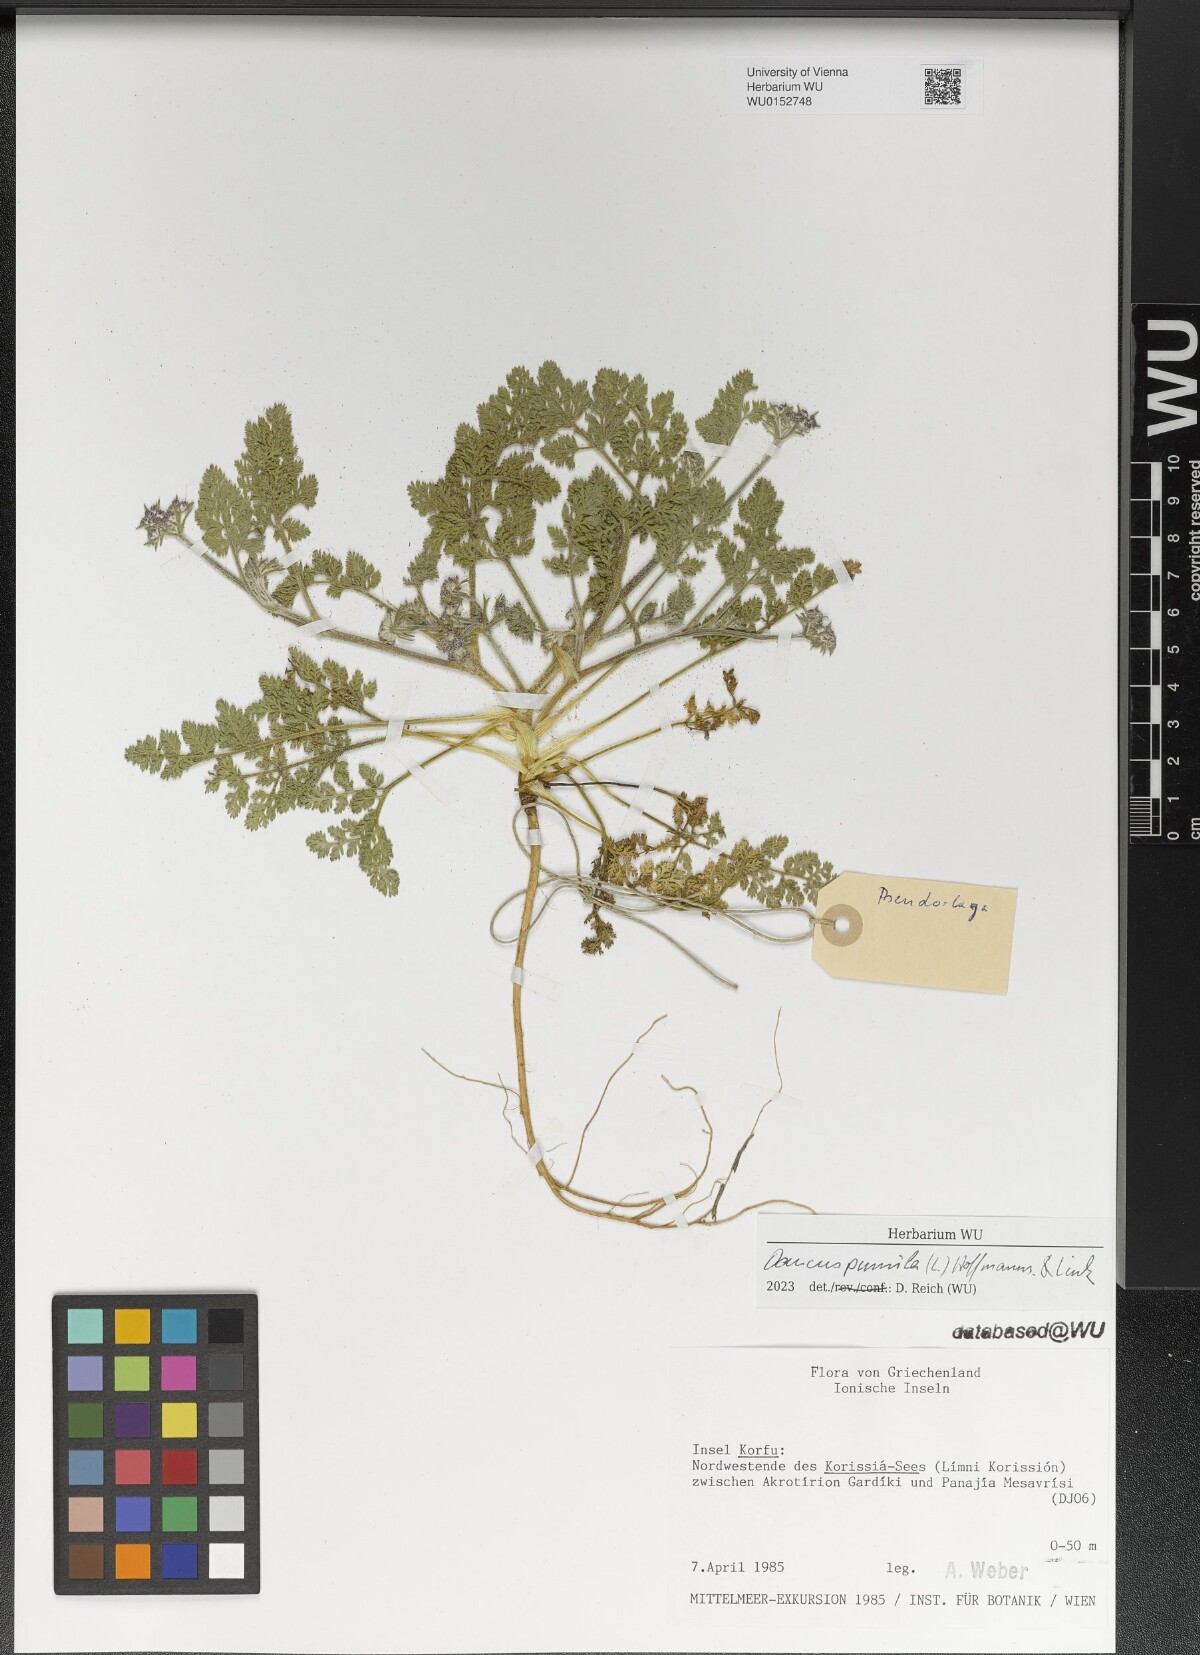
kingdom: Plantae
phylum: Tracheophyta
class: Magnoliopsida
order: Apiales
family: Apiaceae
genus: Daucus
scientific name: Daucus pumilus
